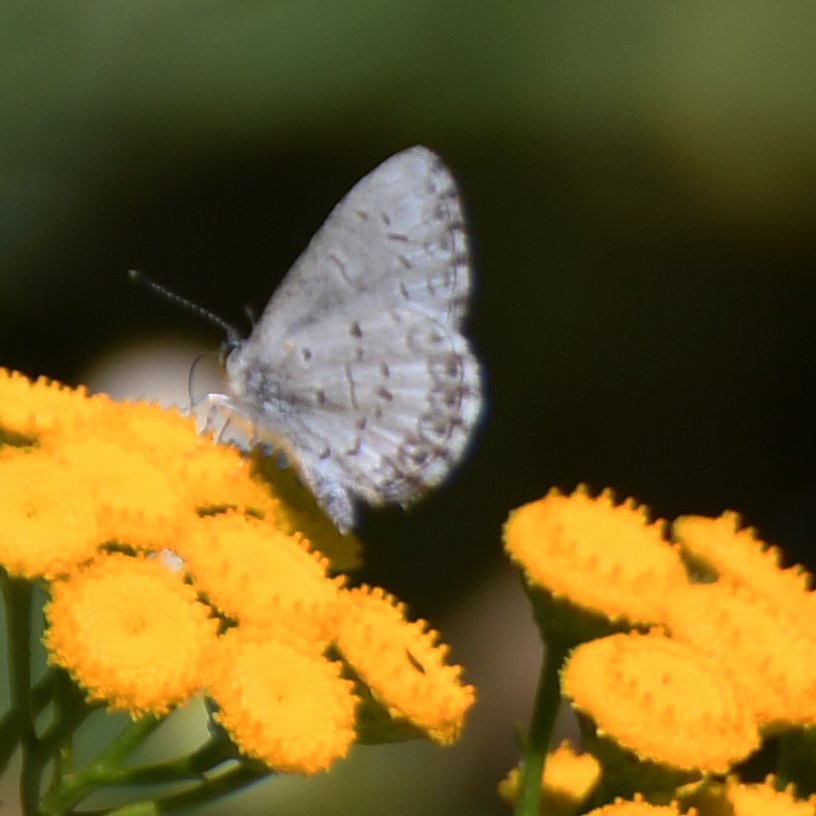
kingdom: Animalia
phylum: Arthropoda
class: Insecta
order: Lepidoptera
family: Lycaenidae
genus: Celastrina
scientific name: Celastrina lucia
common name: Northern Spring Azure
